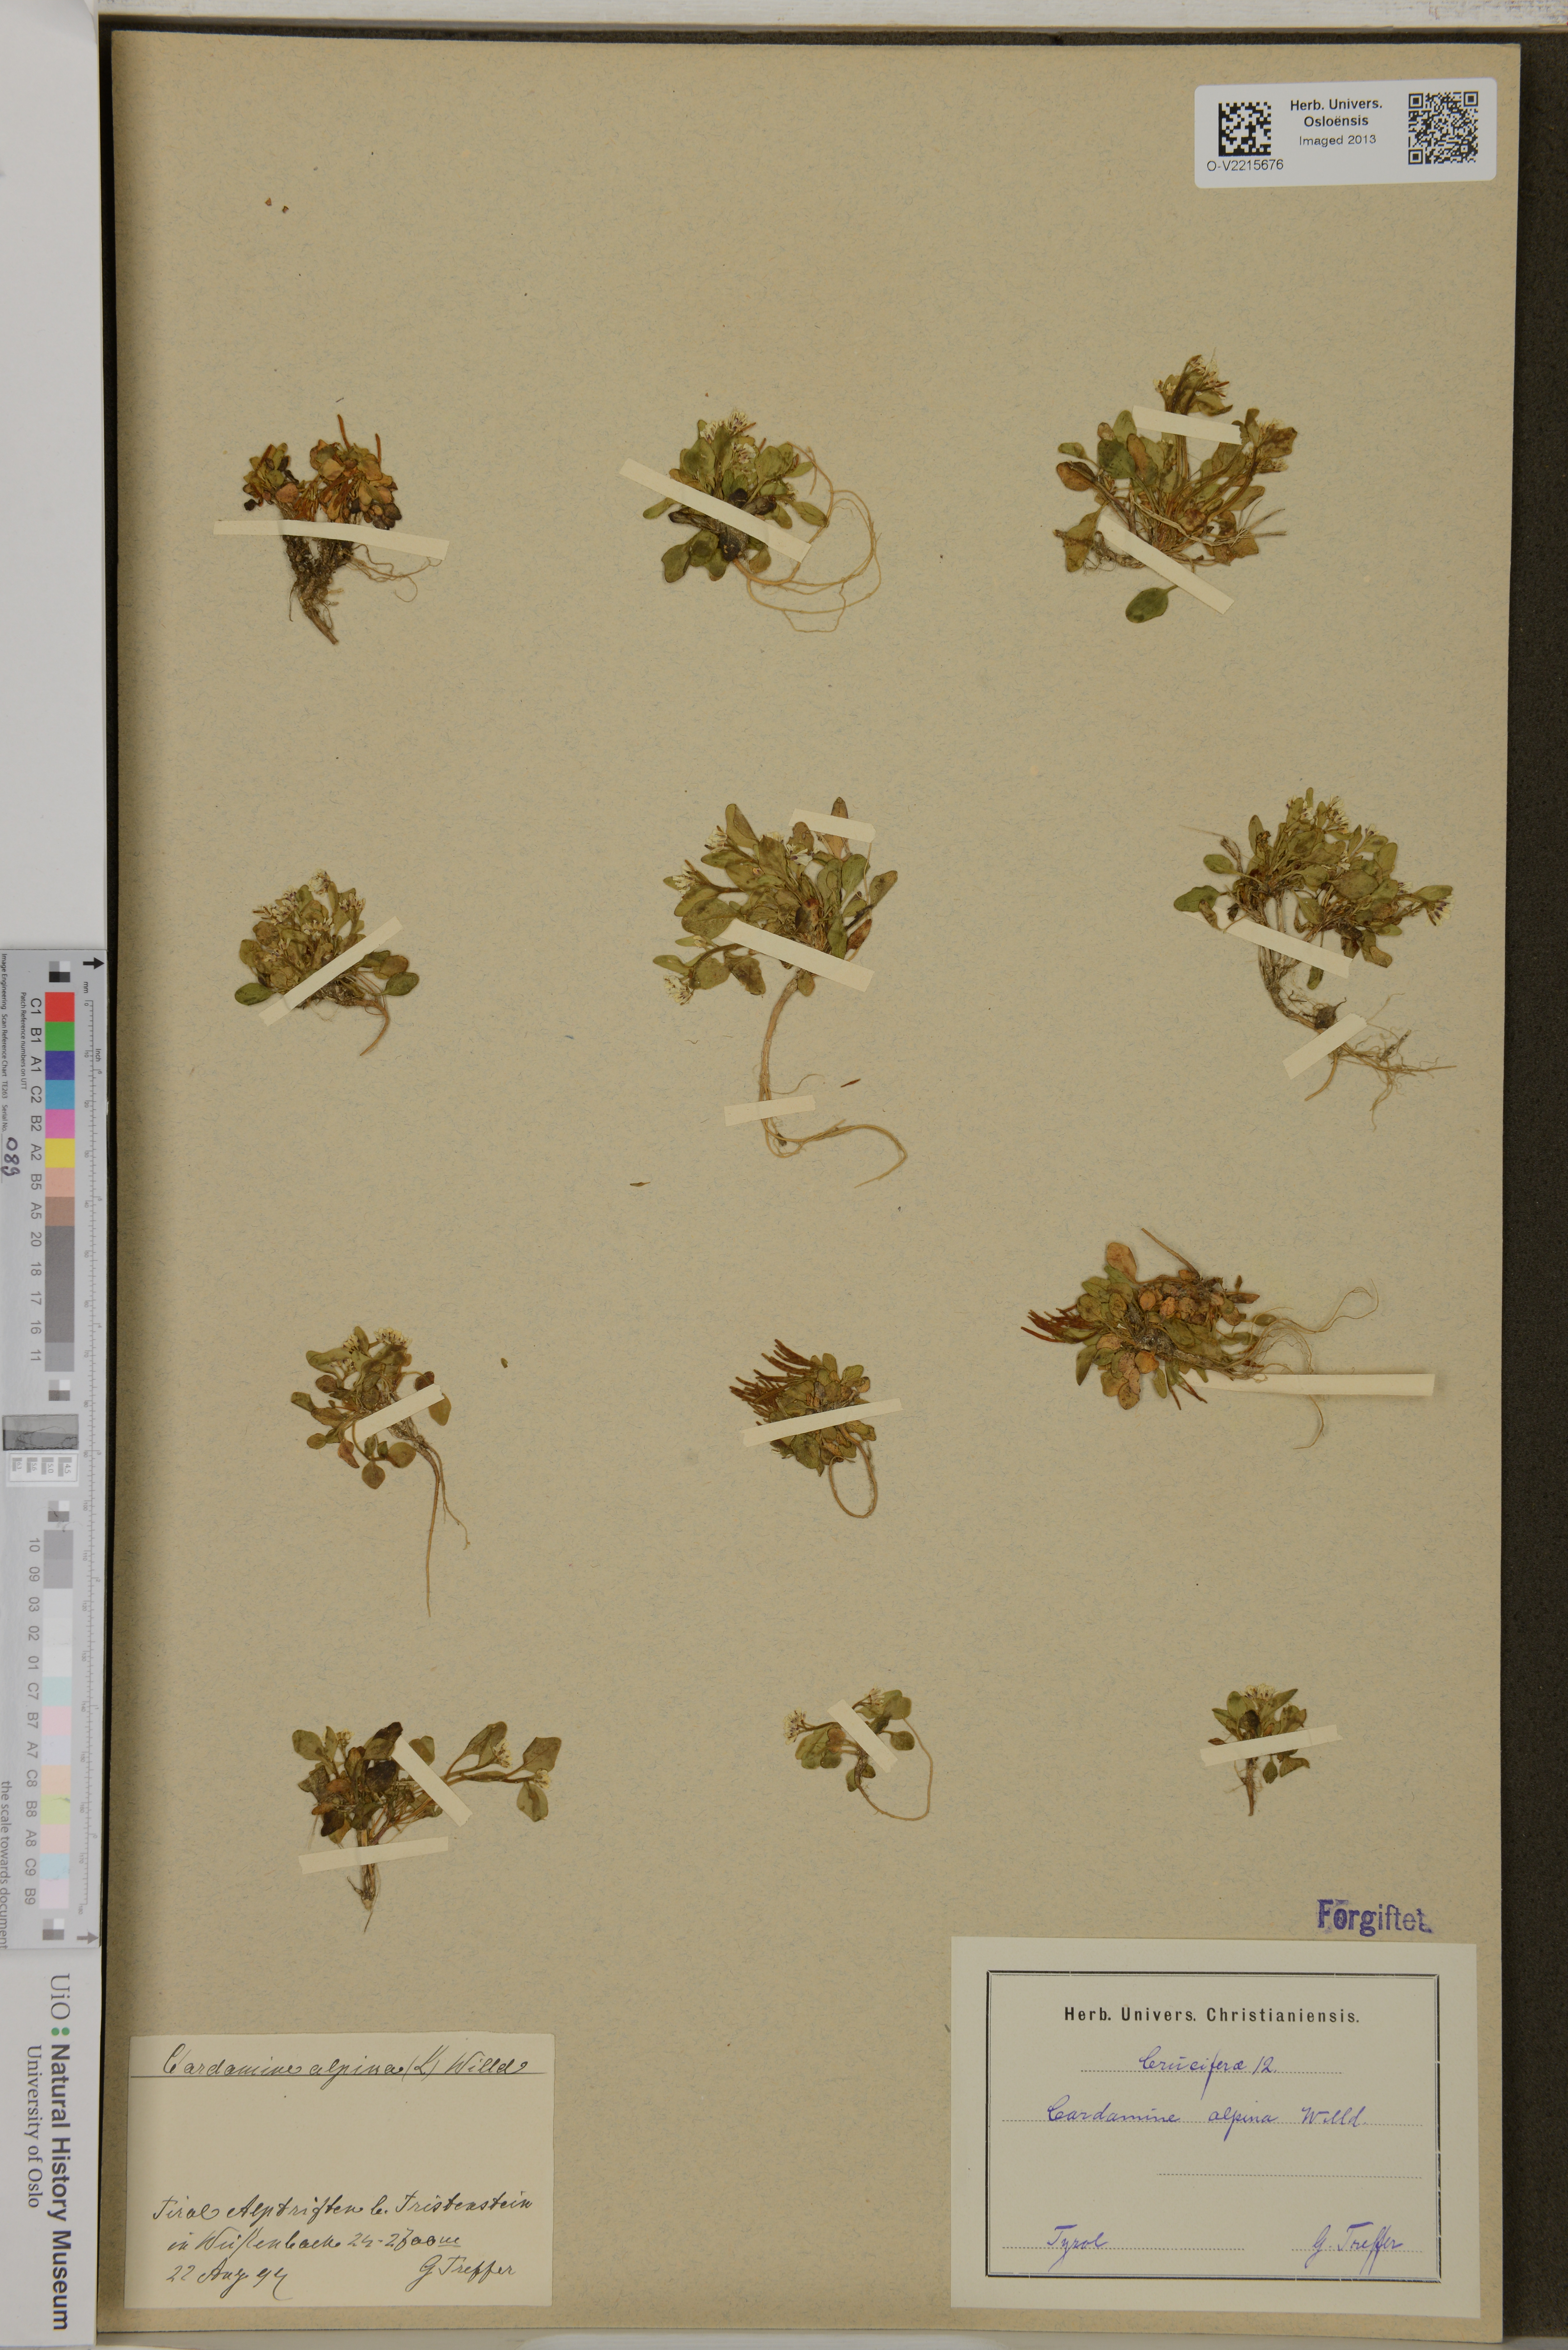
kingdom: Plantae
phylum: Tracheophyta
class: Magnoliopsida
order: Brassicales
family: Brassicaceae
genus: Cardamine
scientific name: Cardamine bellidifolia
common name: Alpine bittercress
